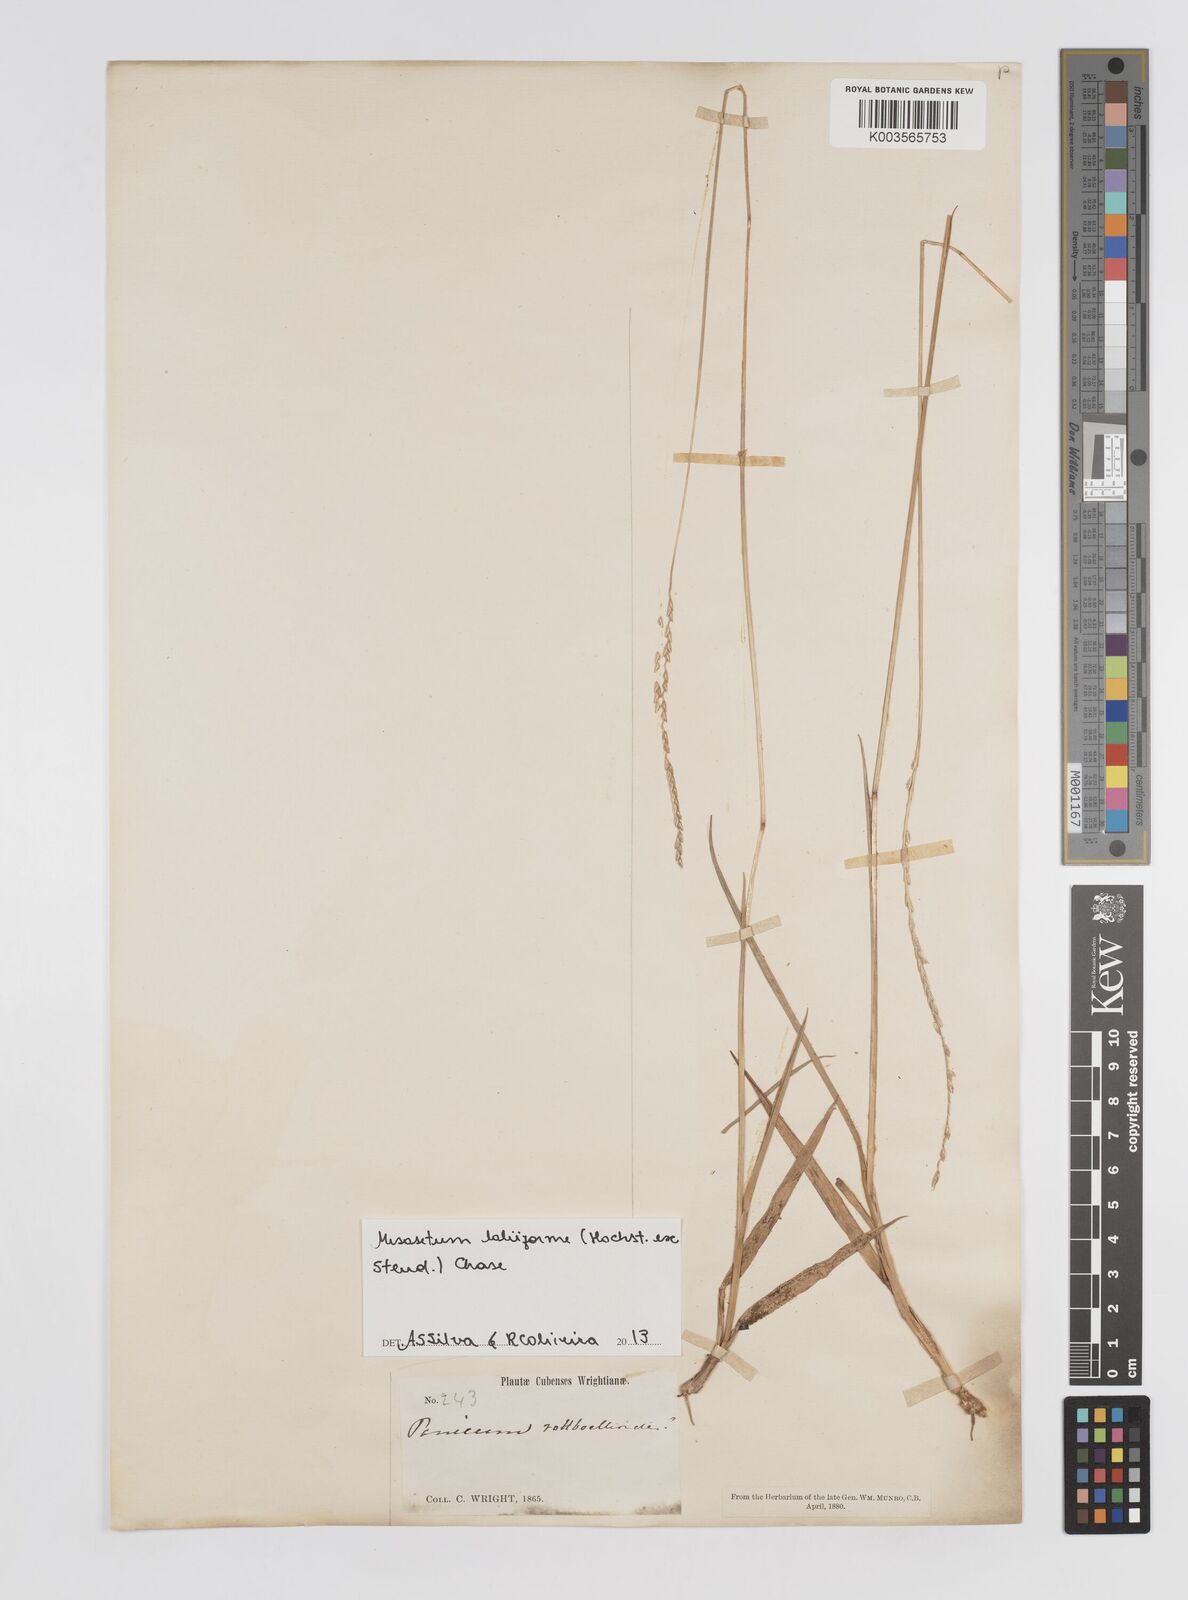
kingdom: Plantae
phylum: Tracheophyta
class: Liliopsida
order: Poales
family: Poaceae
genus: Mesosetum
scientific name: Mesosetum loliiforme
